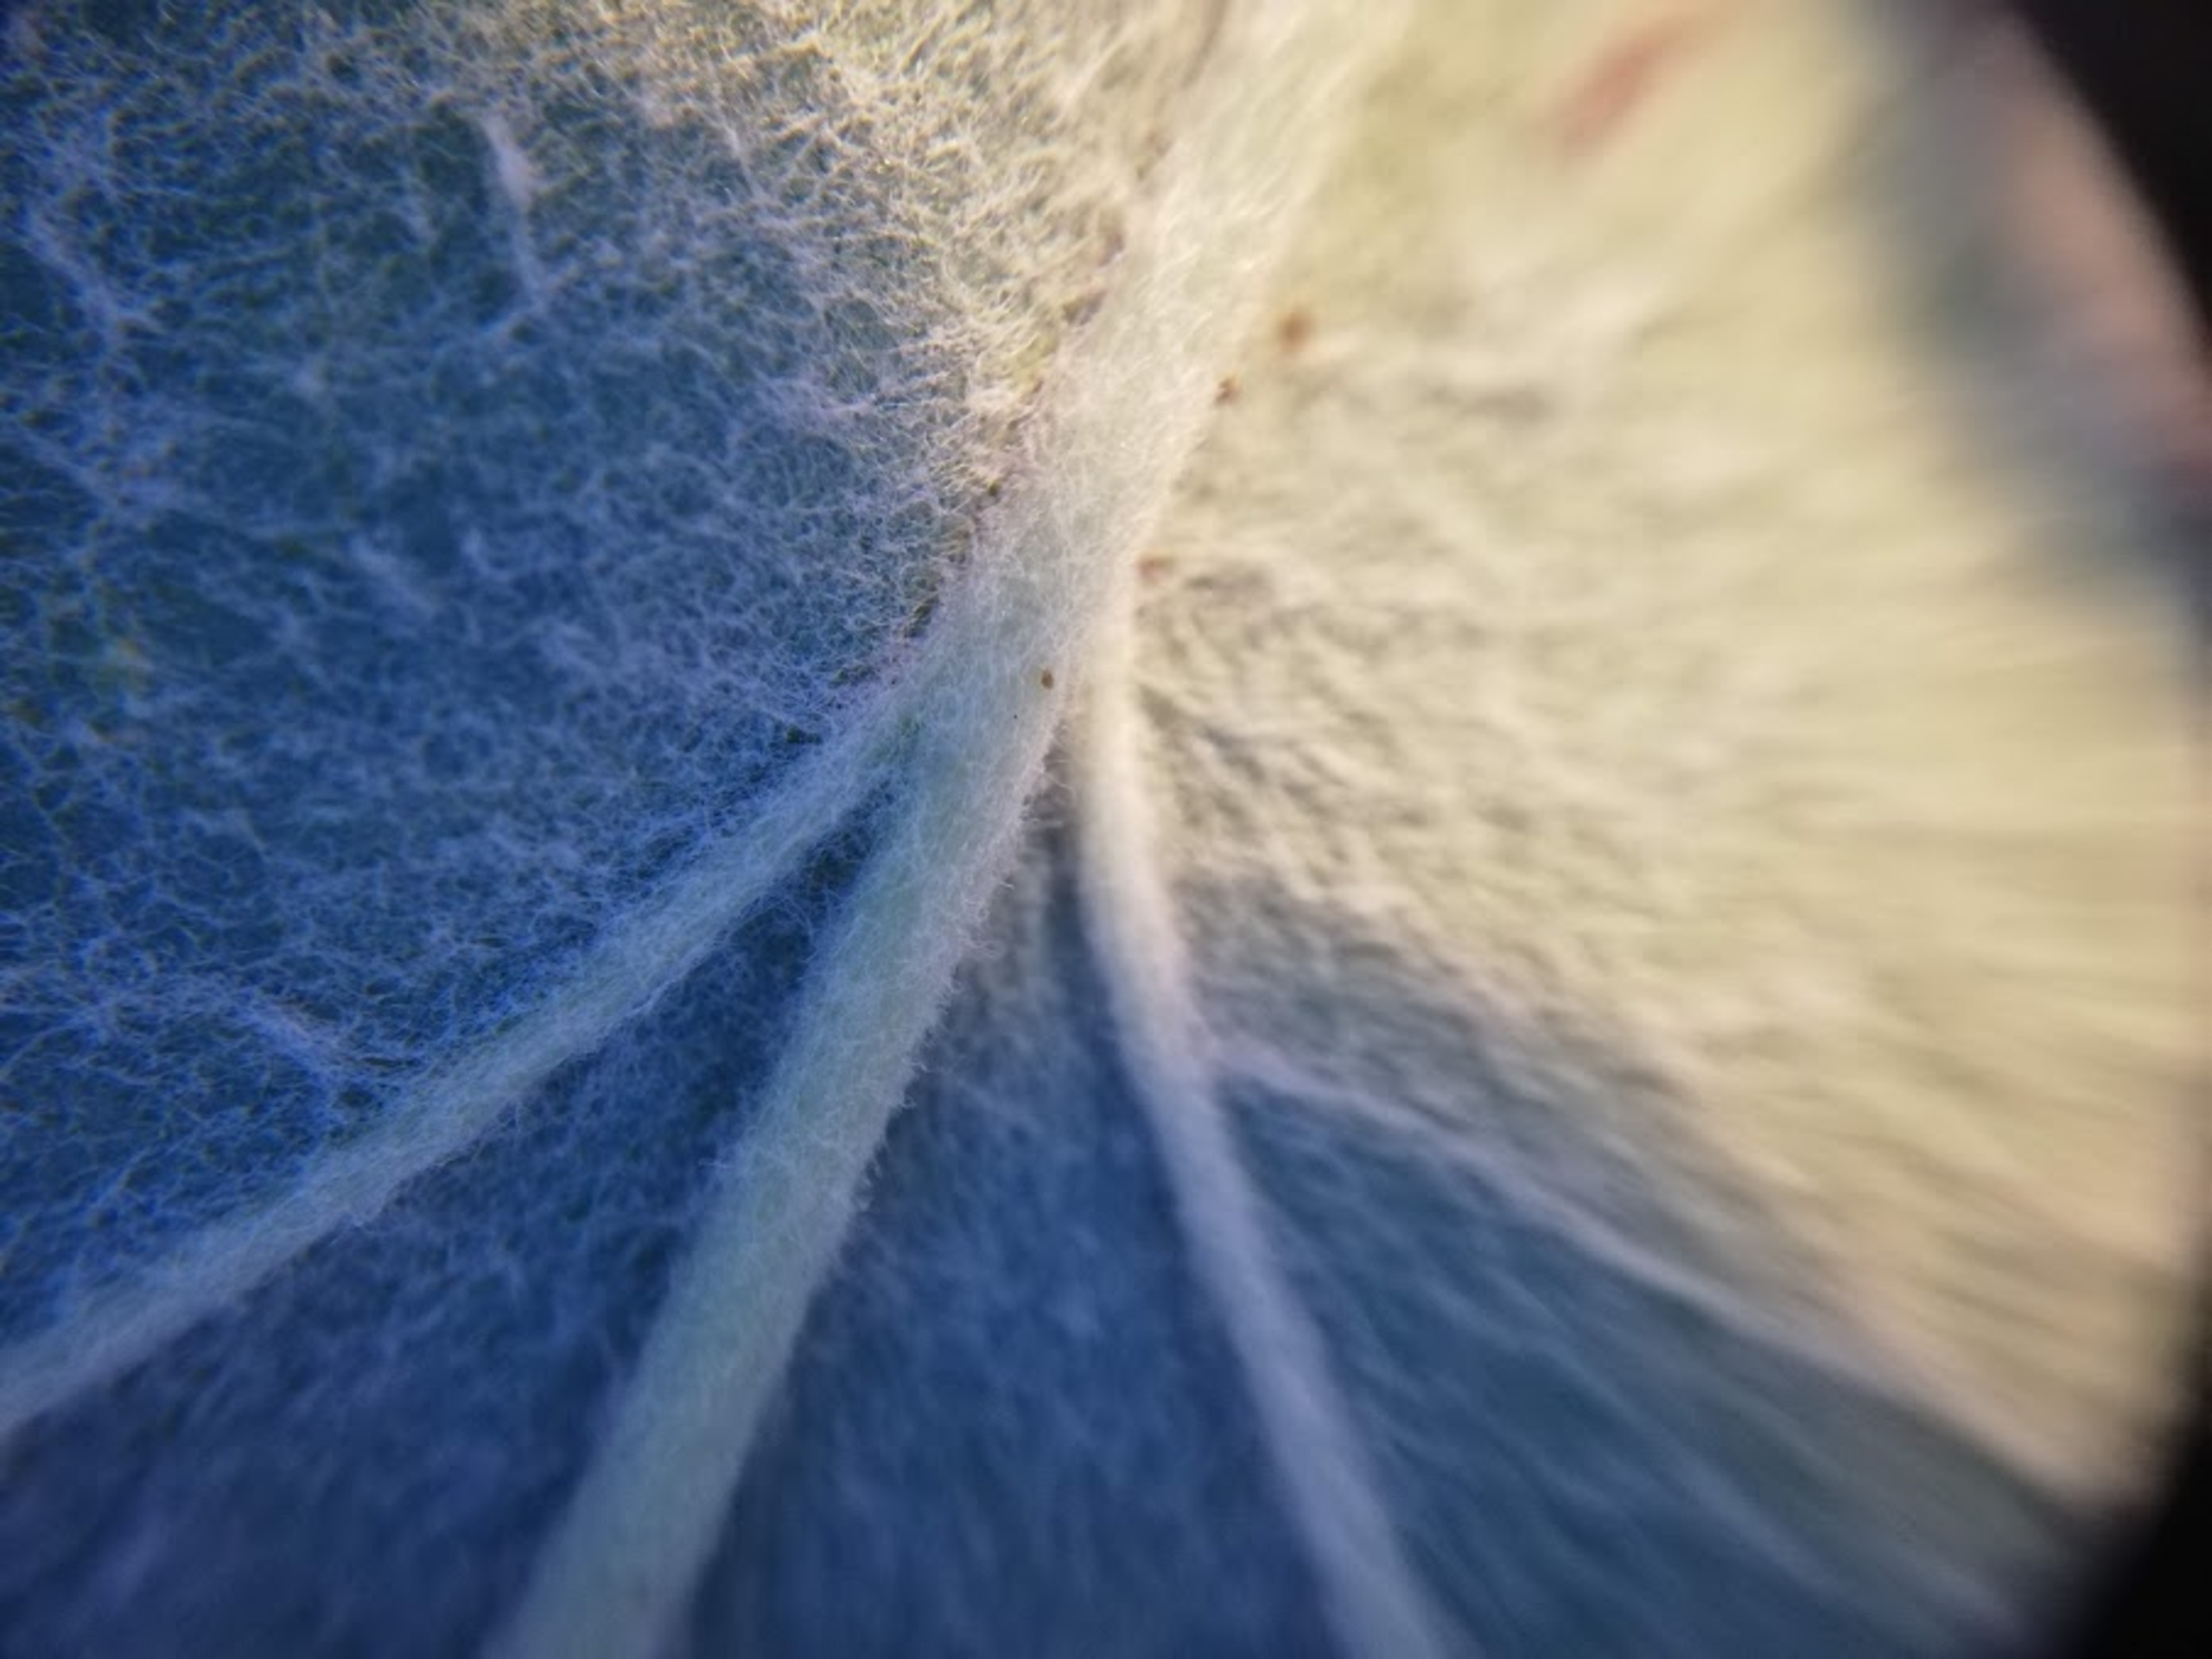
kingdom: Plantae
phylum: Tracheophyta
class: Magnoliopsida
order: Rosales
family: Rosaceae
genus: Scandosorbus
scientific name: Scandosorbus intermedia
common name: Selje-røn
